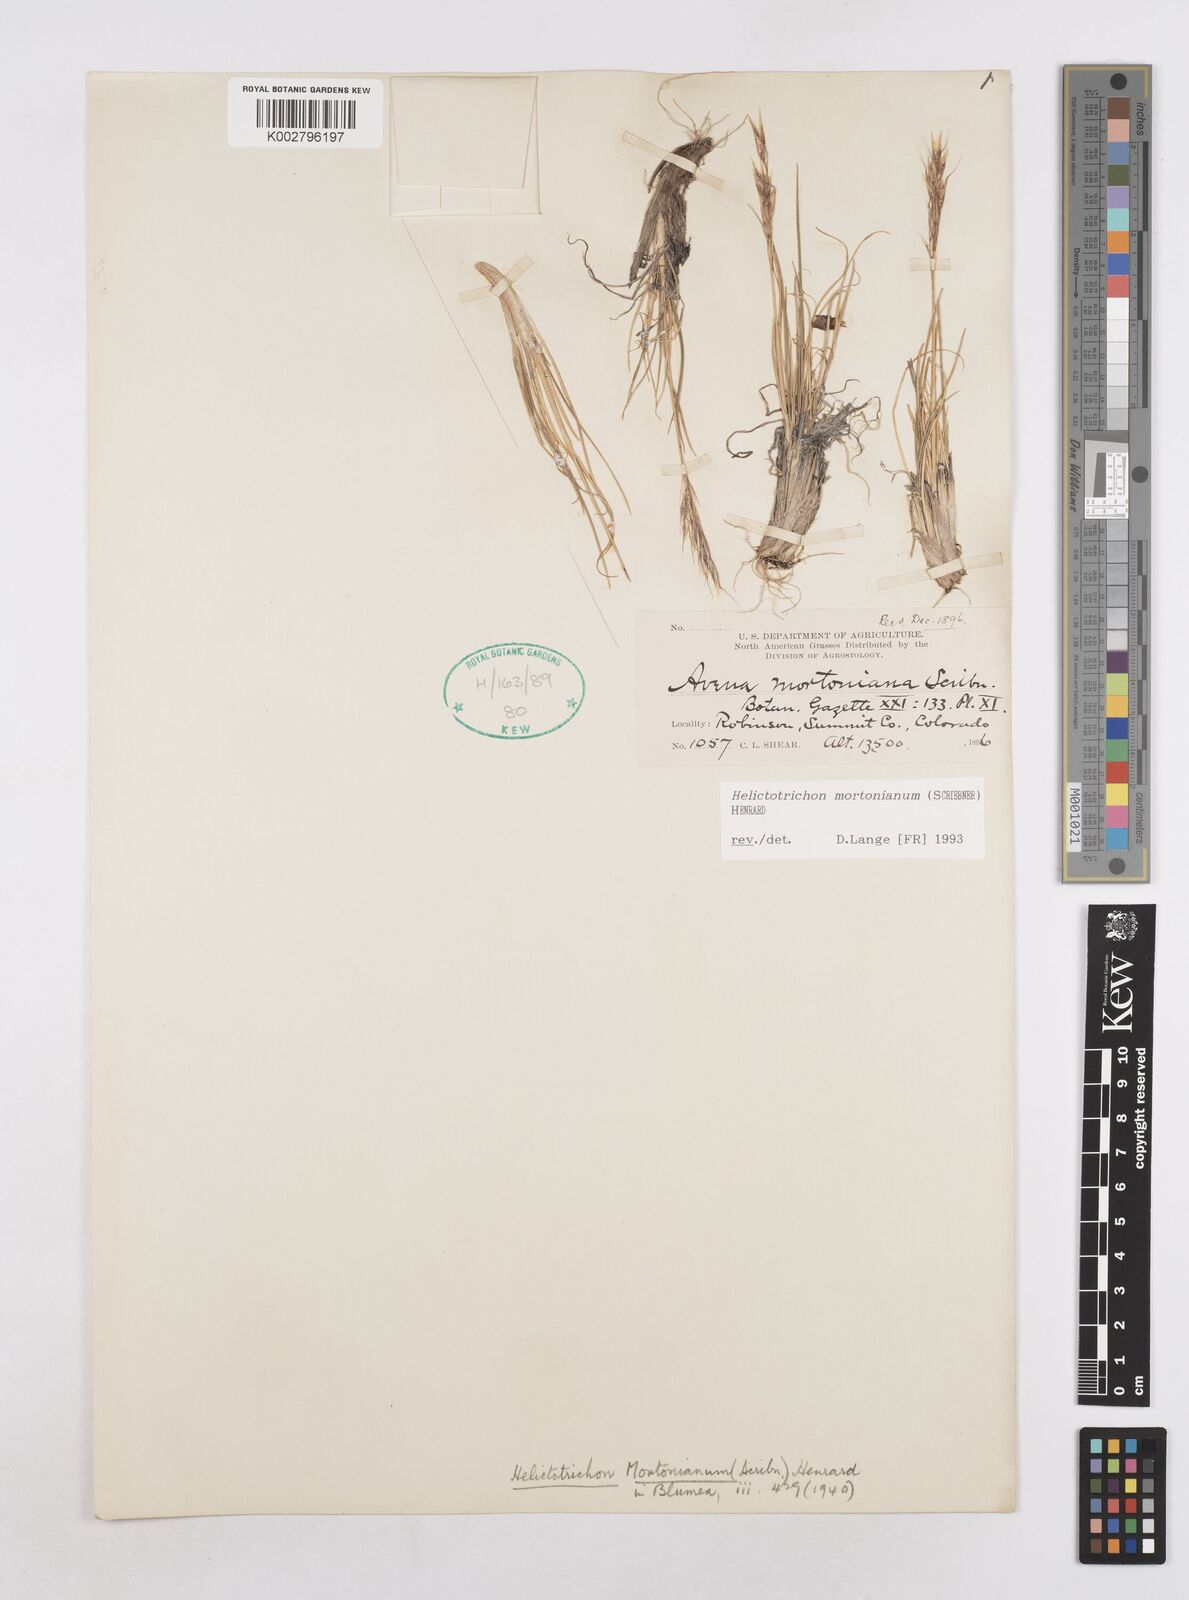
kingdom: Plantae
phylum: Tracheophyta
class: Liliopsida
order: Poales
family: Poaceae
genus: Helictotrichon
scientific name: Helictotrichon mortonianum
